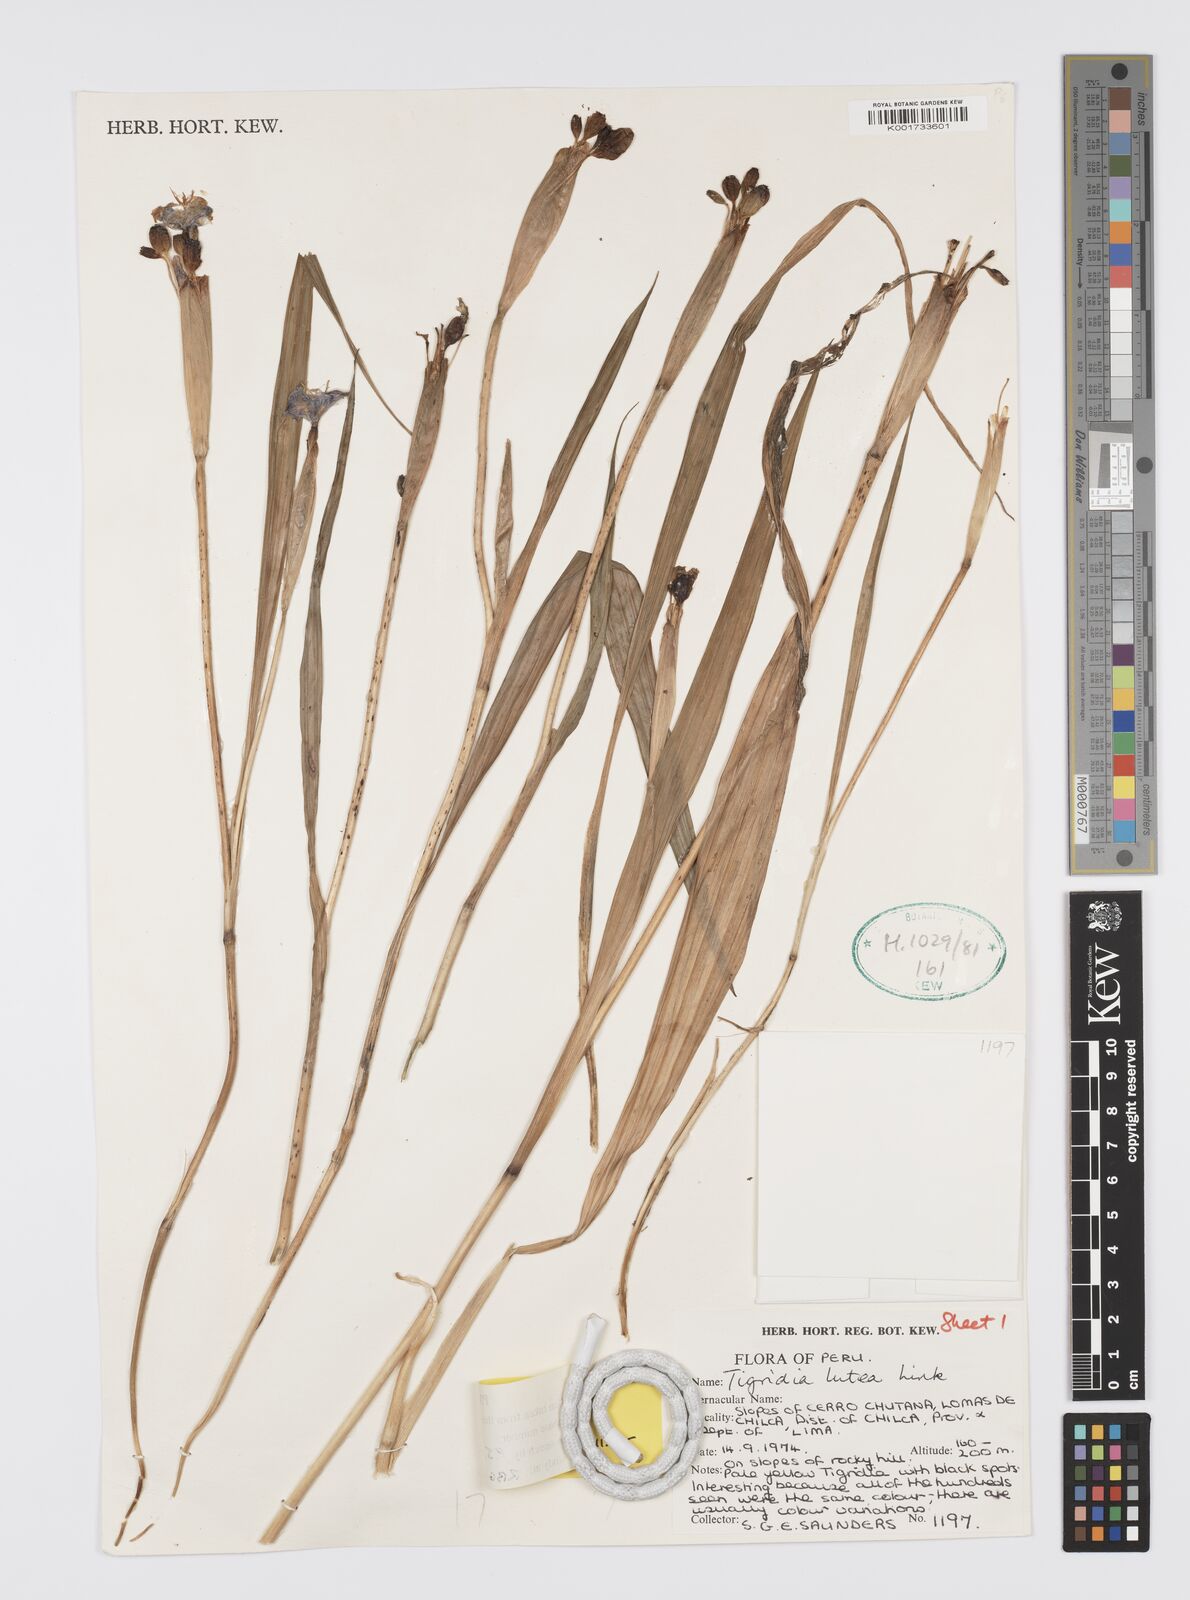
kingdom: Plantae
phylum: Tracheophyta
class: Liliopsida
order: Asparagales
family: Iridaceae
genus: Tigridia
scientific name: Tigridia pavonia
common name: Peacock-flower
